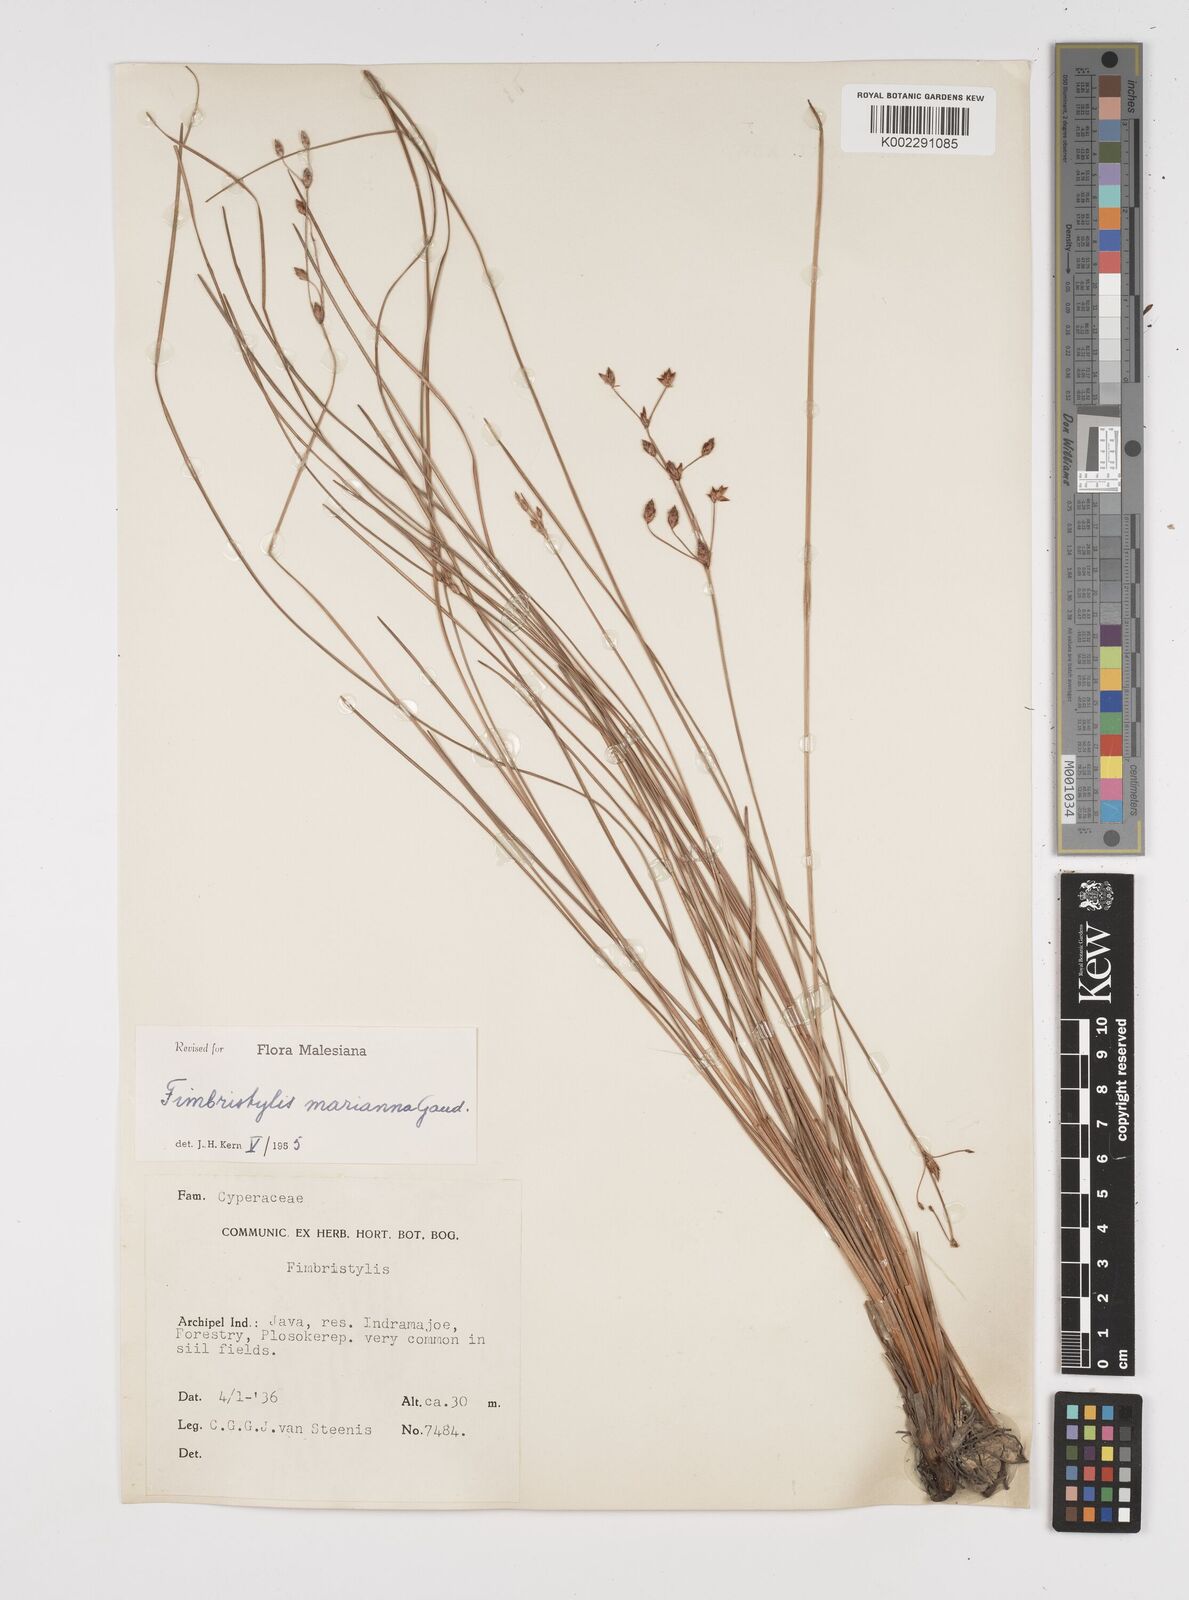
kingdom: Plantae
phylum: Tracheophyta
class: Liliopsida
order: Poales
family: Cyperaceae
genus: Fimbristylis
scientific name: Fimbristylis tristachya
